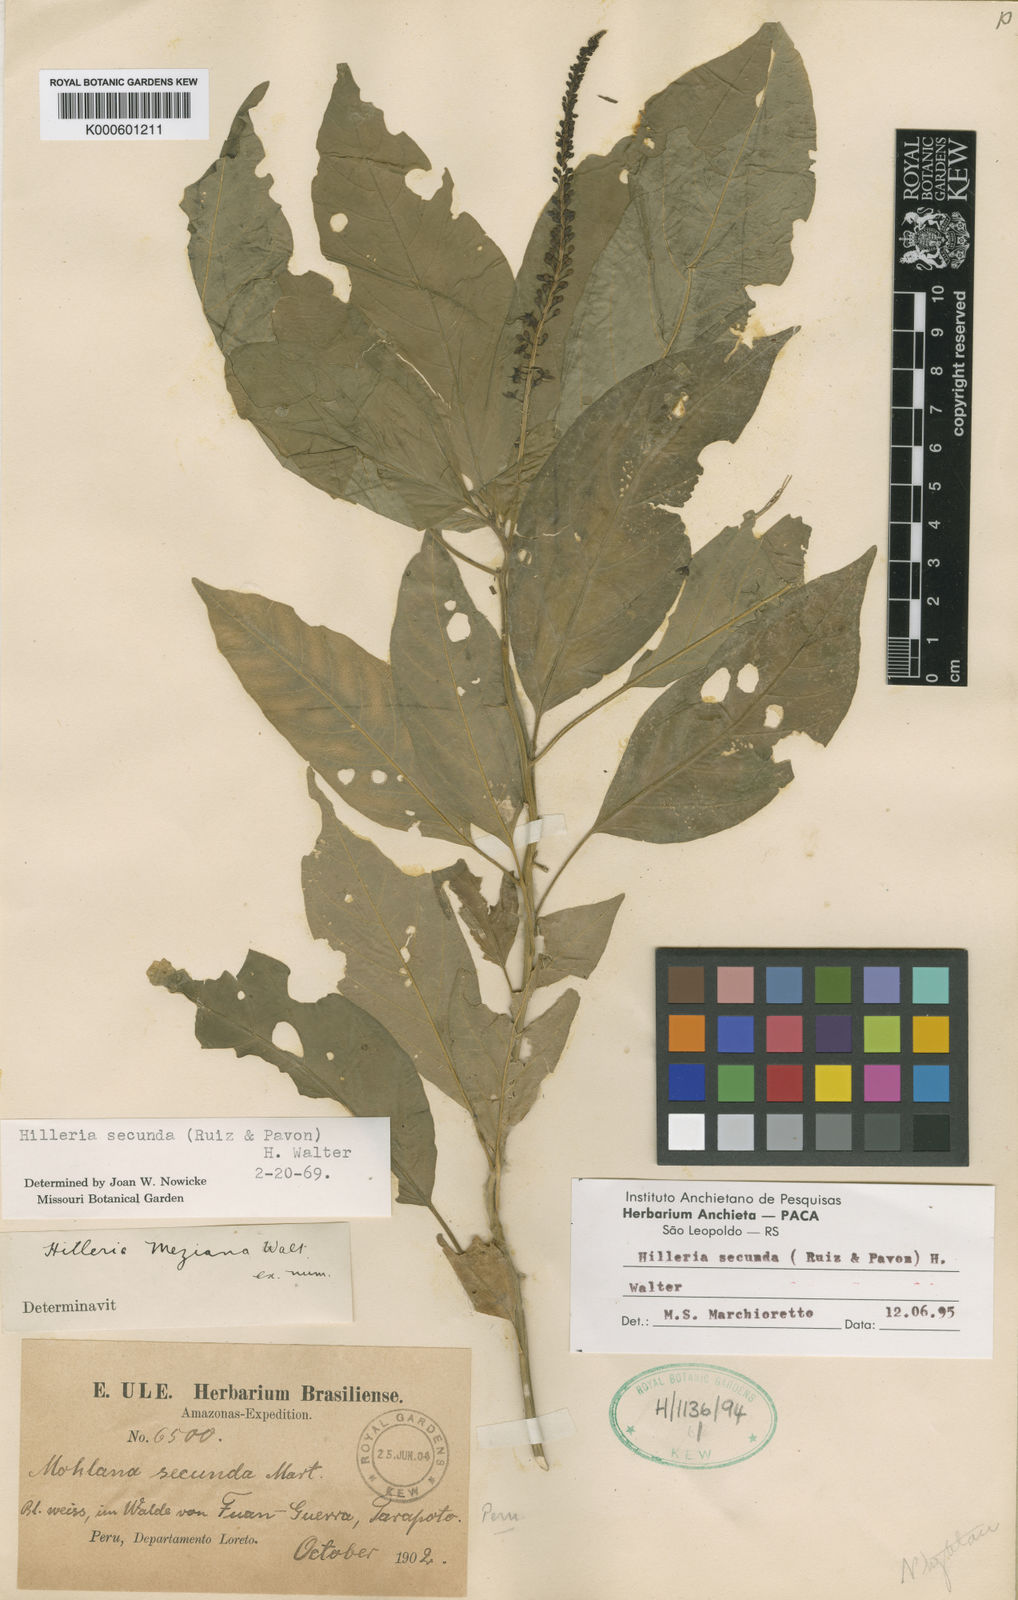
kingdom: Plantae
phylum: Tracheophyta
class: Magnoliopsida
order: Caryophyllales
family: Phytolaccaceae
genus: Hilleria
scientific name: Hilleria
